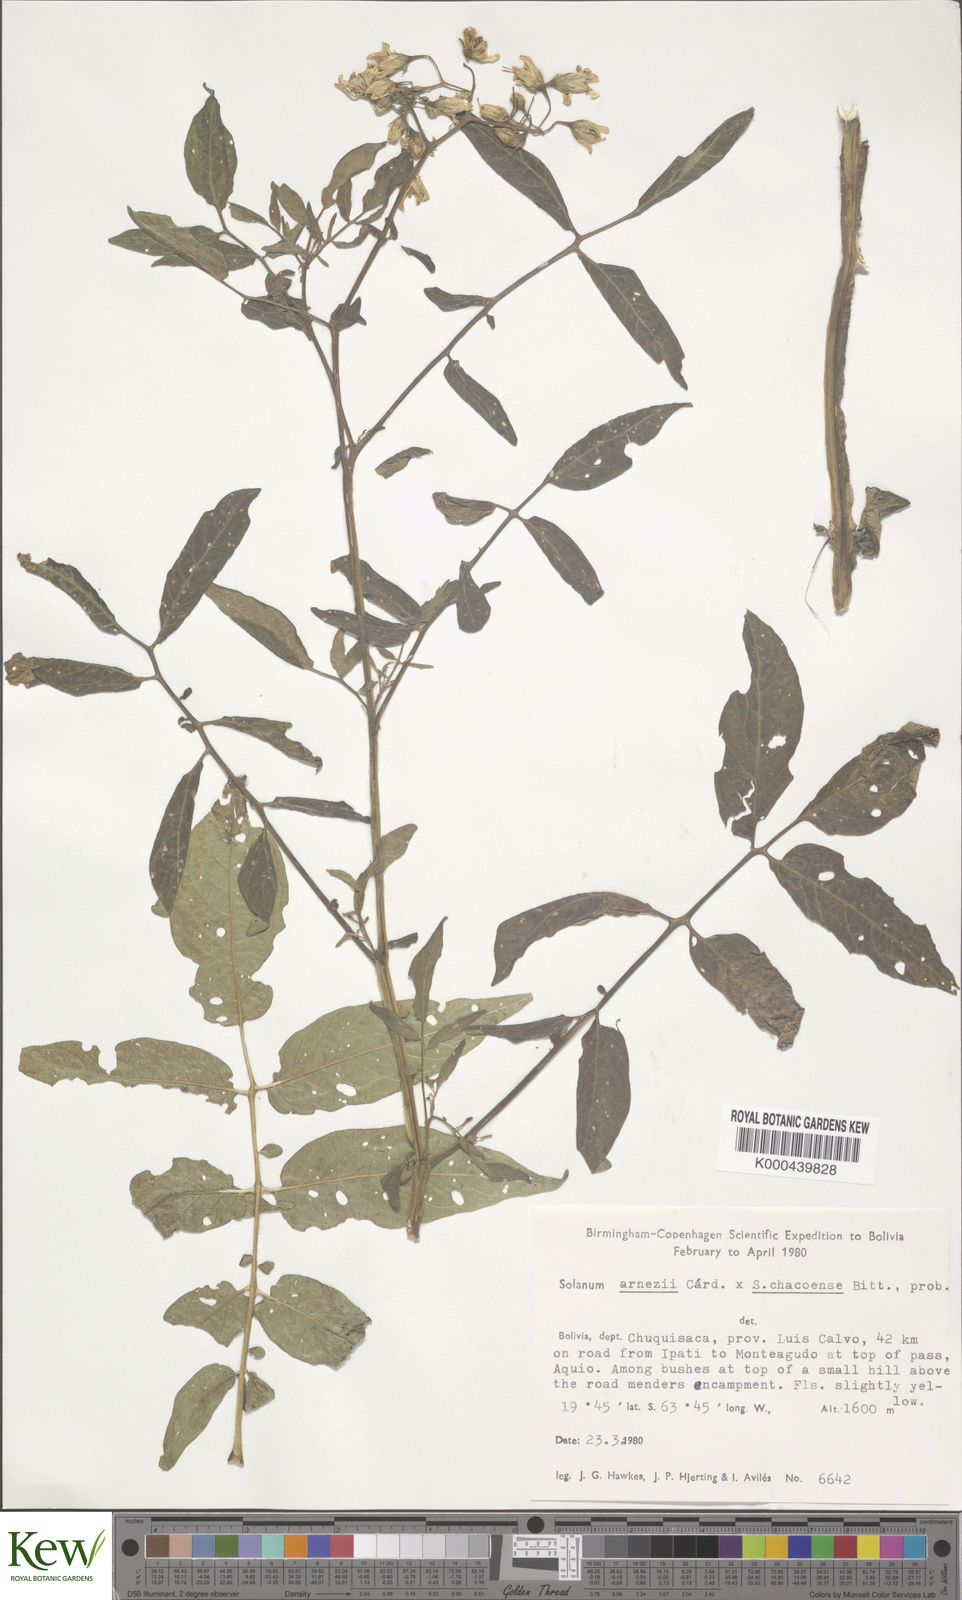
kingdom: Plantae
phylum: Tracheophyta
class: Magnoliopsida
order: Solanales
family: Solanaceae
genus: Solanum
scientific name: Solanum chacoense
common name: Chaco potato
